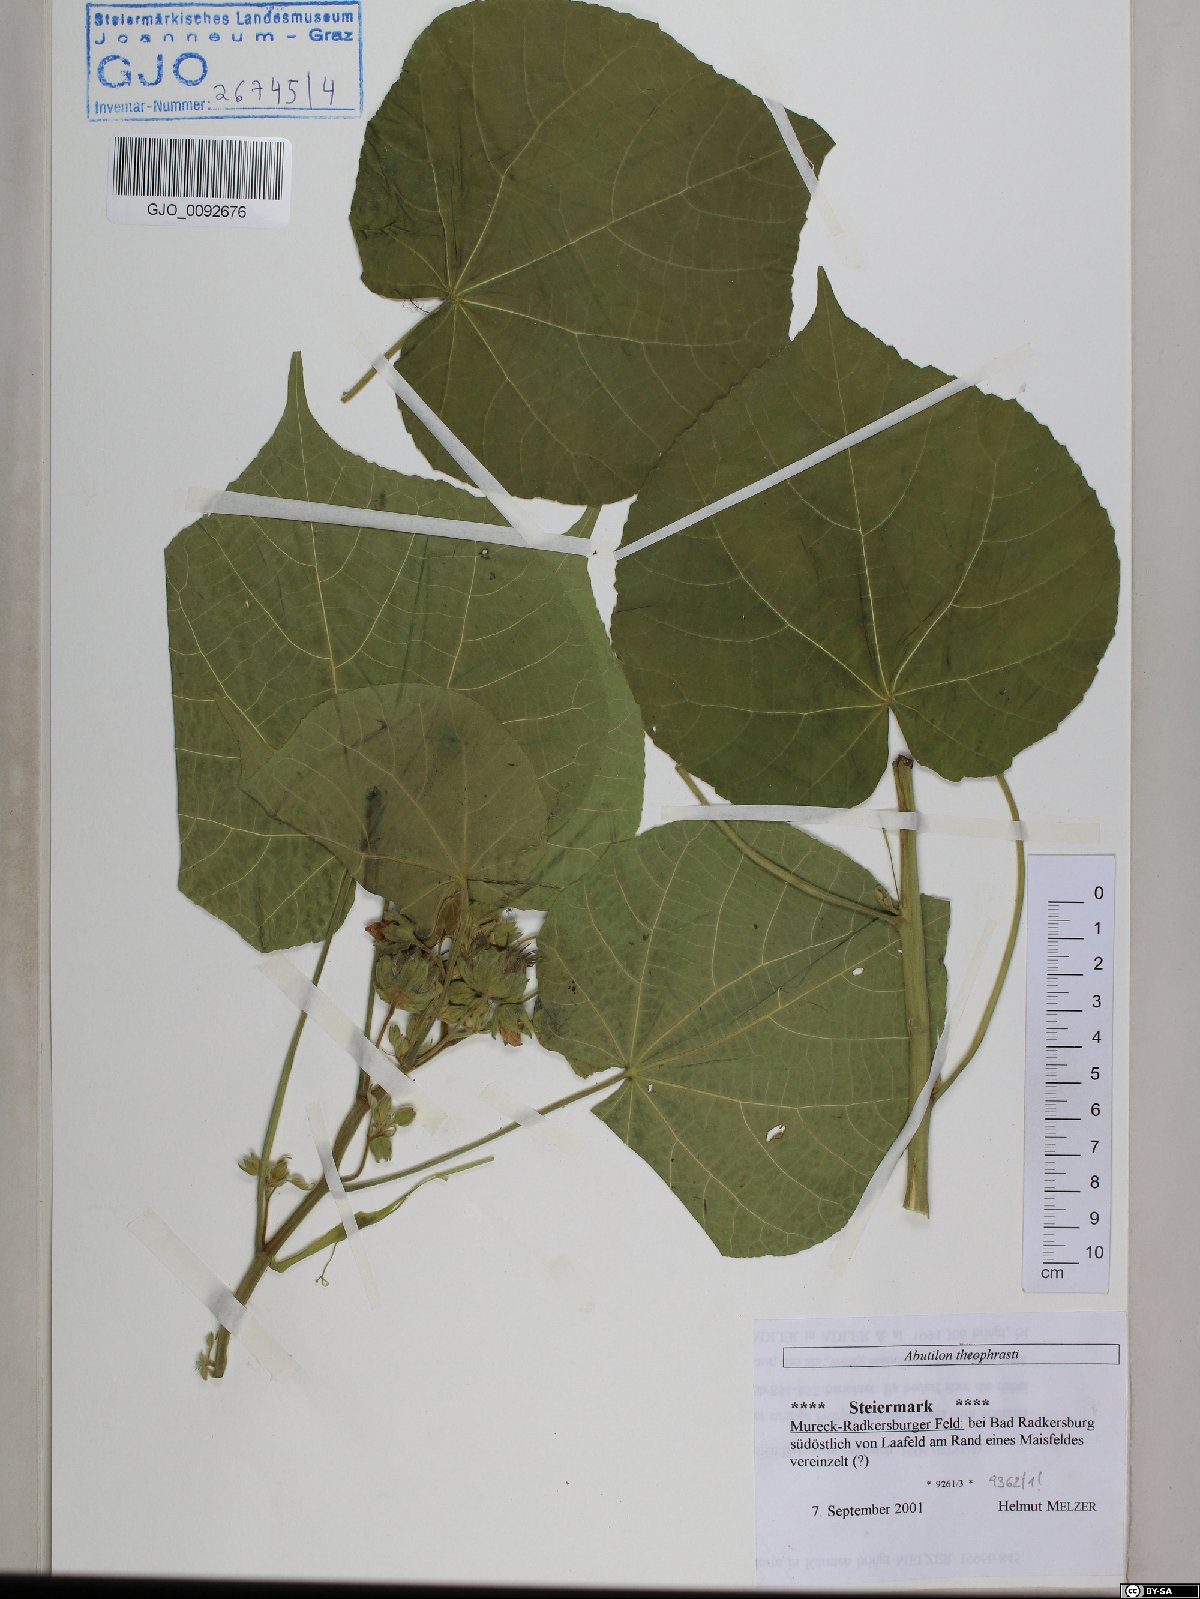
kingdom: Plantae
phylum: Tracheophyta
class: Magnoliopsida
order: Malvales
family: Malvaceae
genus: Abutilon
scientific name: Abutilon theophrasti
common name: Velvetleaf
